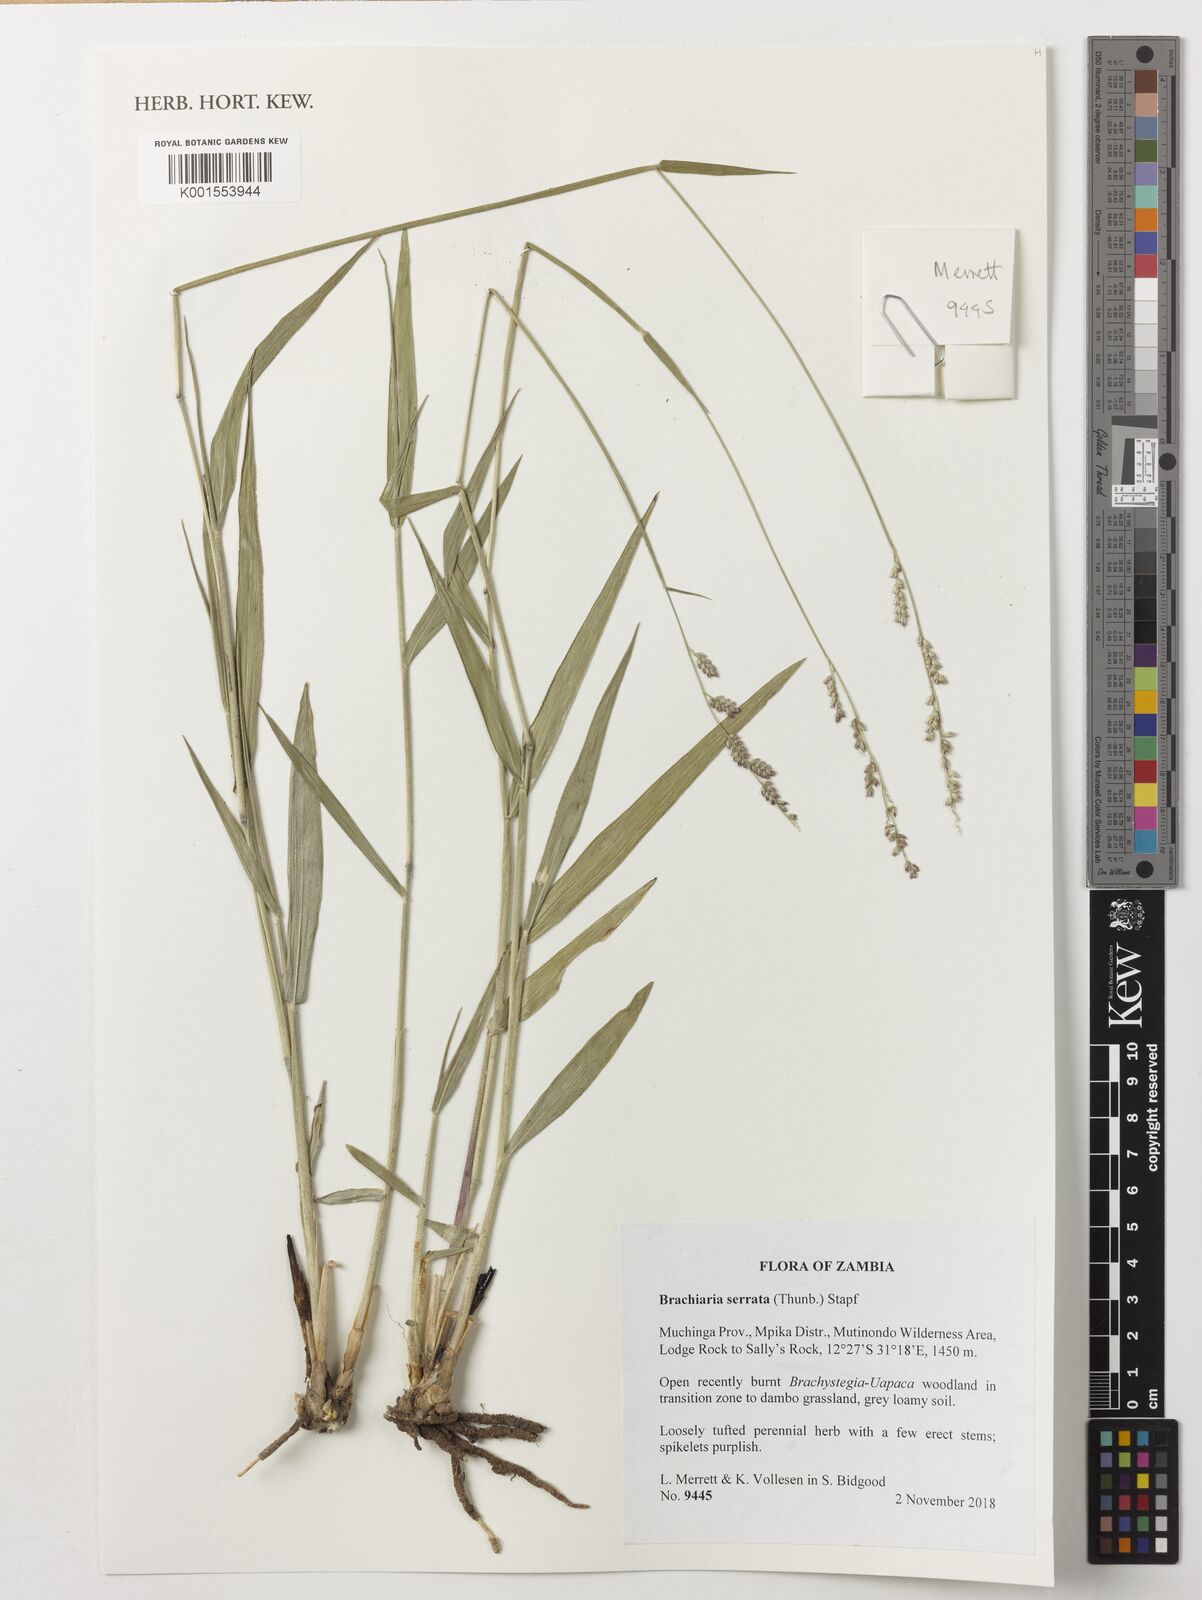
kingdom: Plantae
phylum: Tracheophyta
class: Liliopsida
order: Poales
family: Poaceae
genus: Urochloa
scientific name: Urochloa serrata
